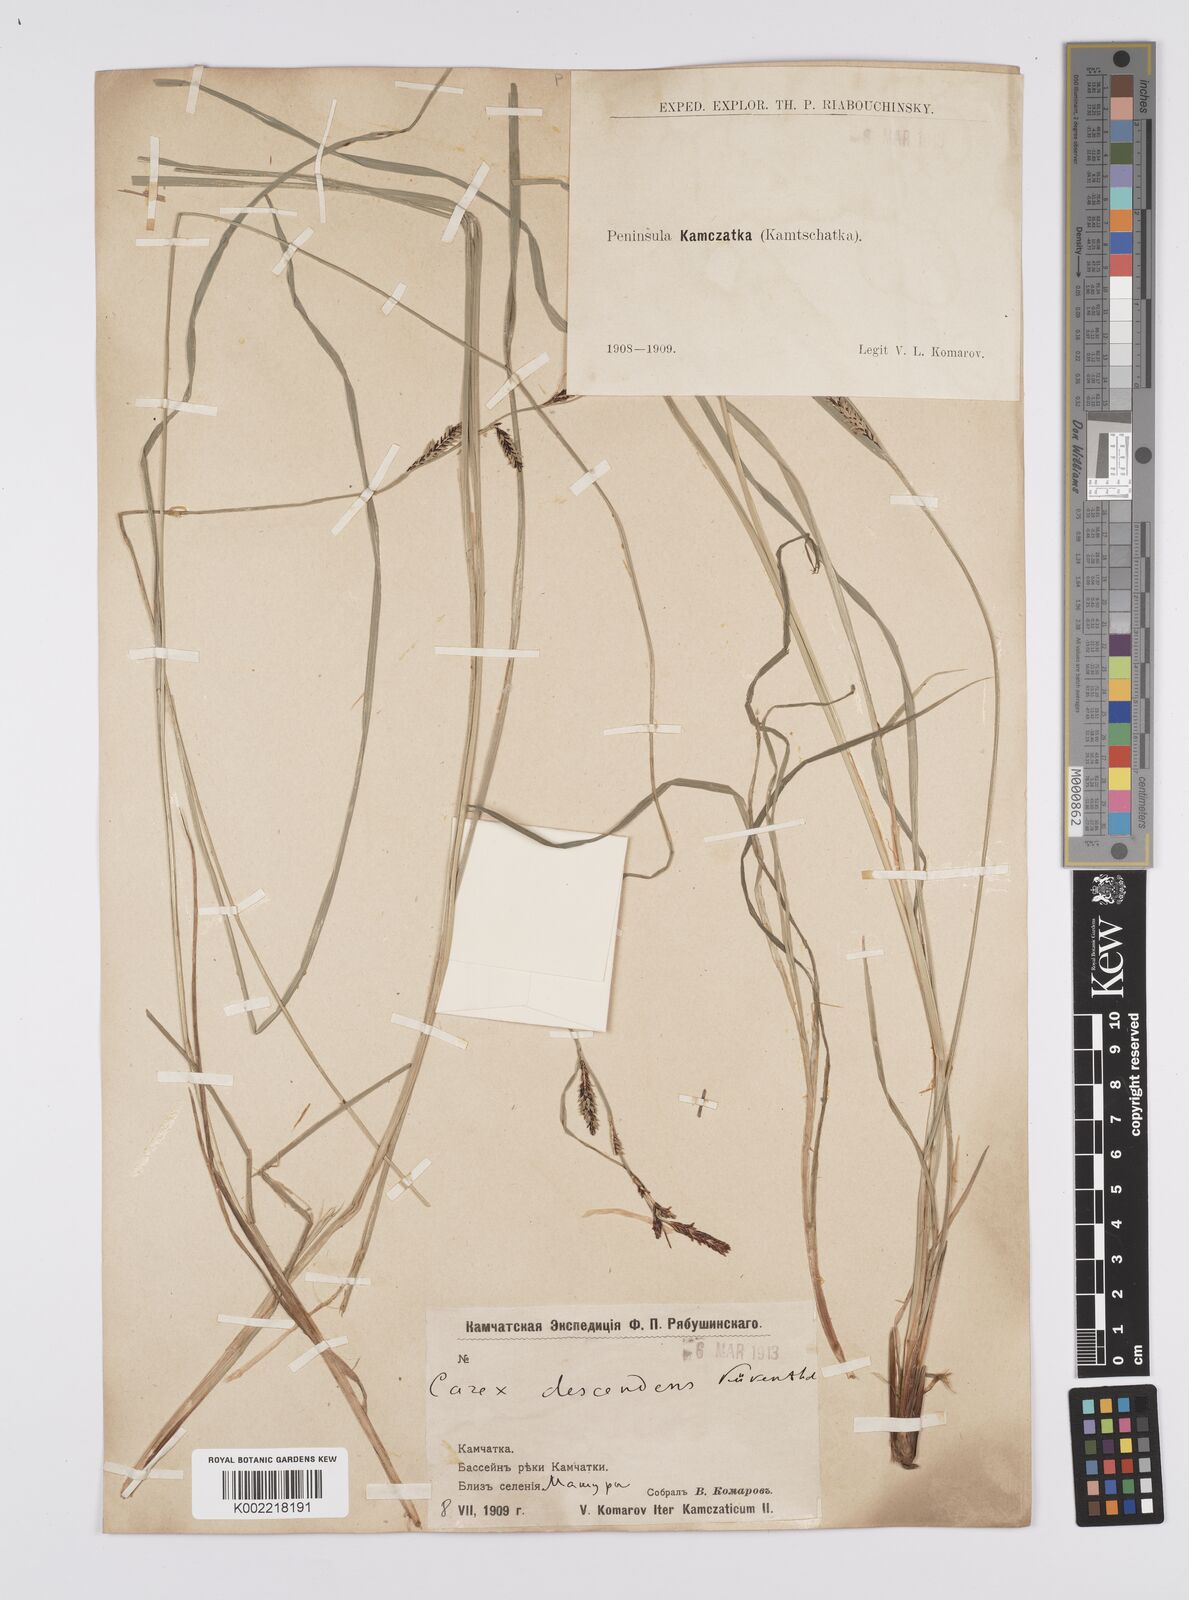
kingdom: Plantae
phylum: Tracheophyta
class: Liliopsida
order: Poales
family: Cyperaceae
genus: Carex
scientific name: Carex descendens
